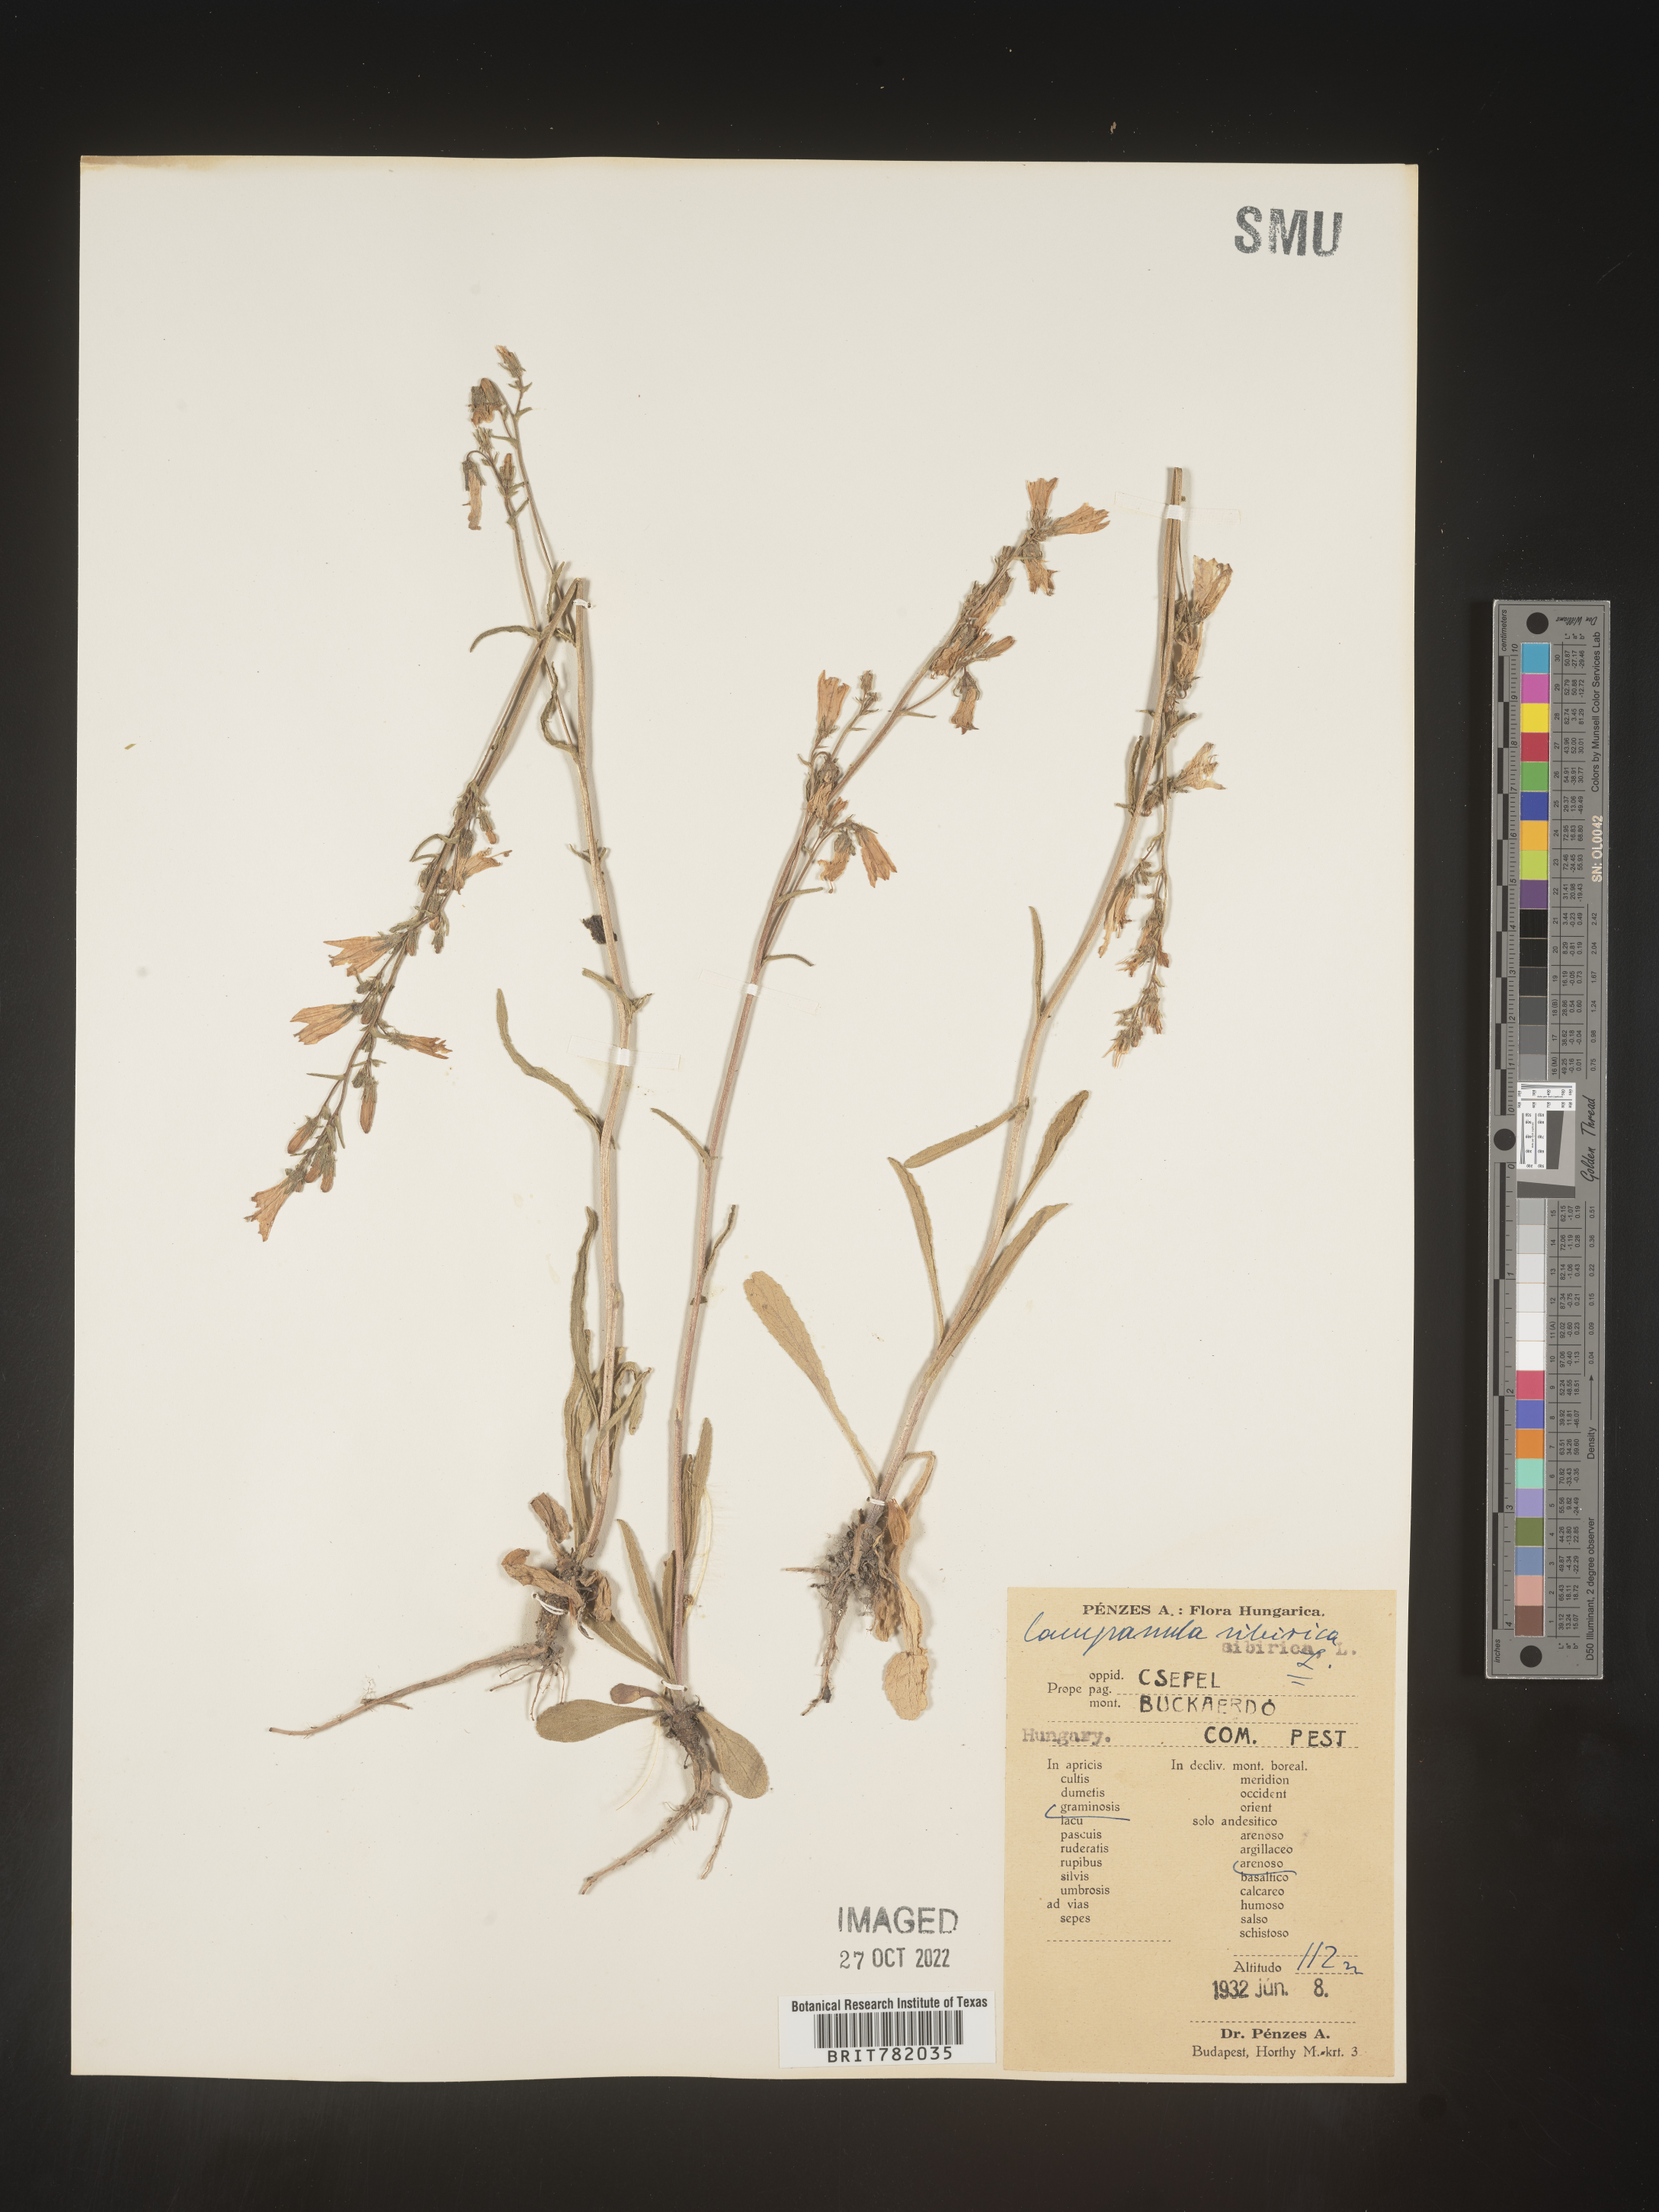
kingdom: Plantae
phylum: Tracheophyta
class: Magnoliopsida
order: Asterales
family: Campanulaceae
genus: Campanula
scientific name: Campanula
